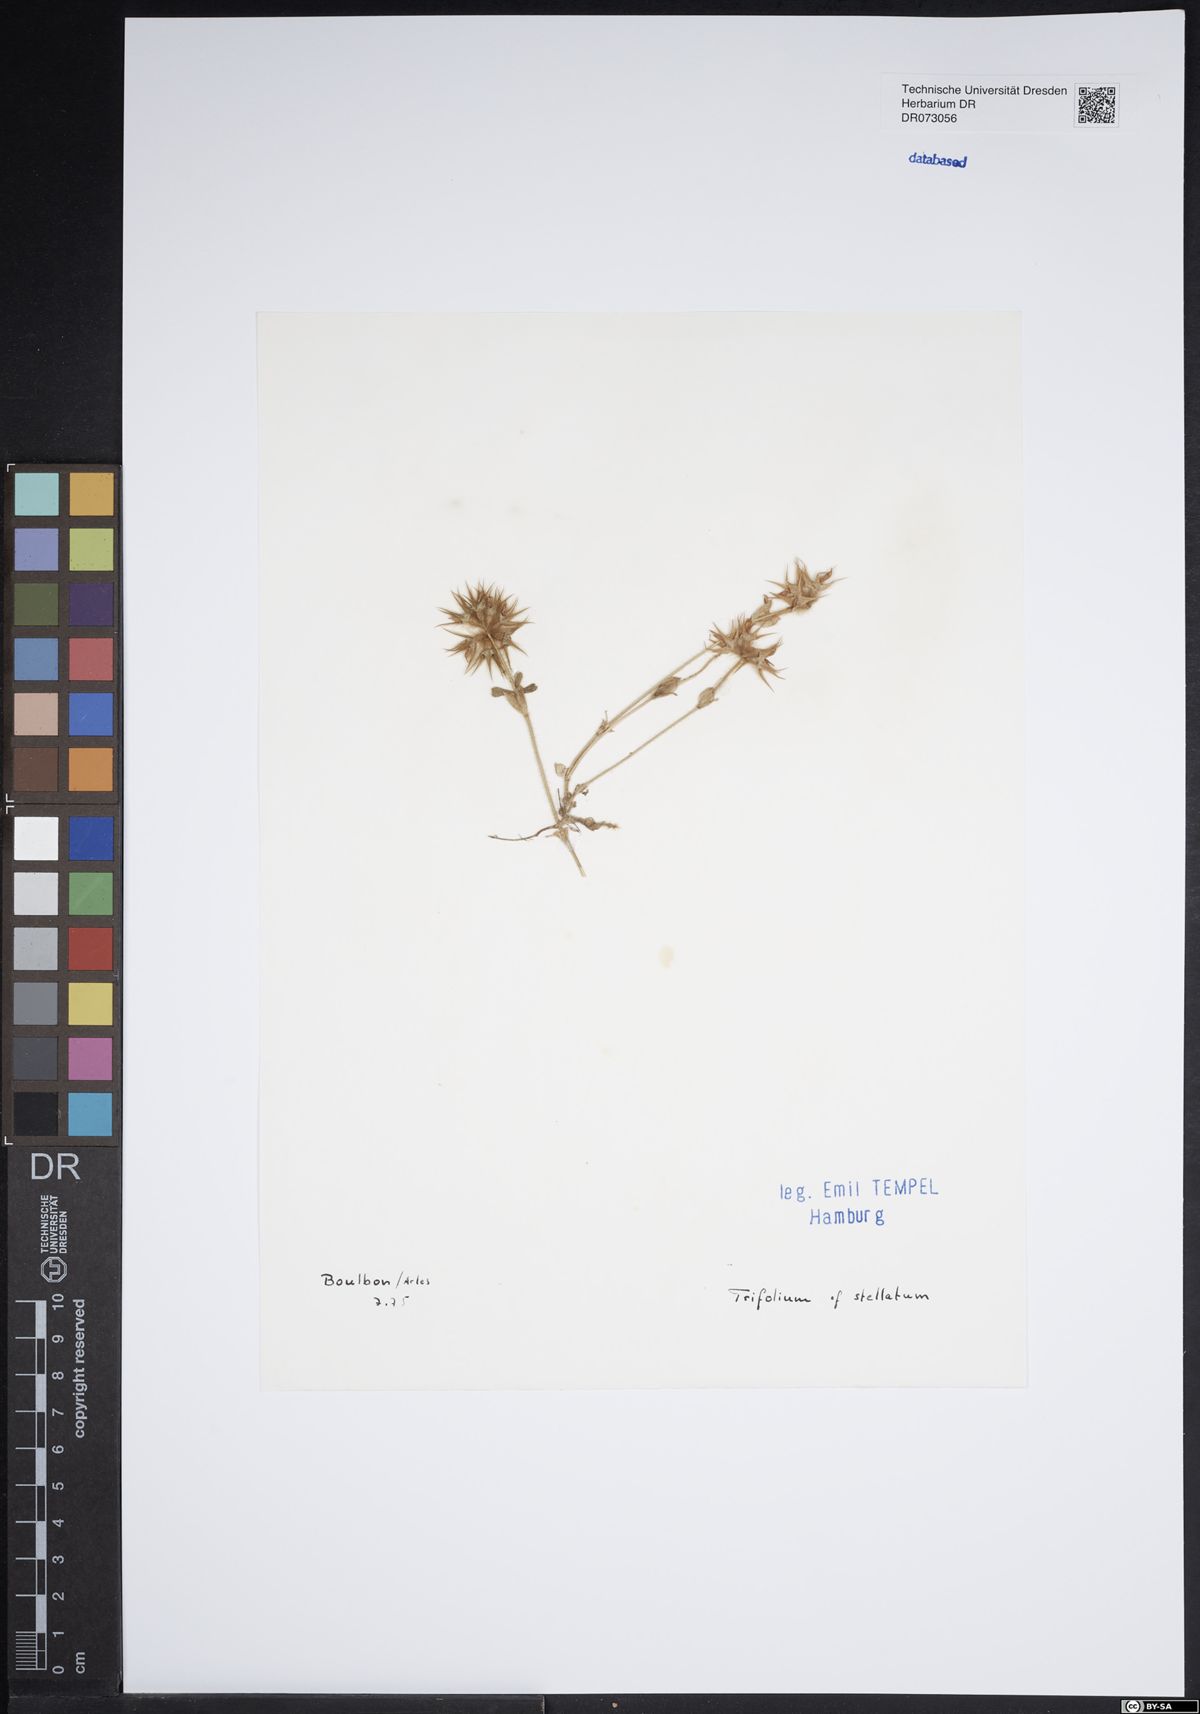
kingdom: Plantae
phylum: Tracheophyta
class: Magnoliopsida
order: Fabales
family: Fabaceae
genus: Trifolium
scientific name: Trifolium stellatum
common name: Starry clover
